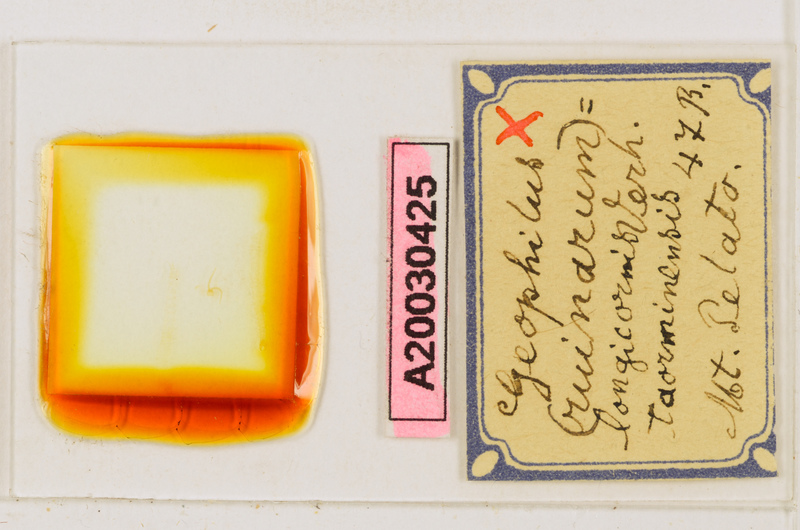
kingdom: Animalia
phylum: Arthropoda
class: Chilopoda
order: Geophilomorpha
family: Geophilidae
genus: Geophilus
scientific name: Geophilus fucorum
